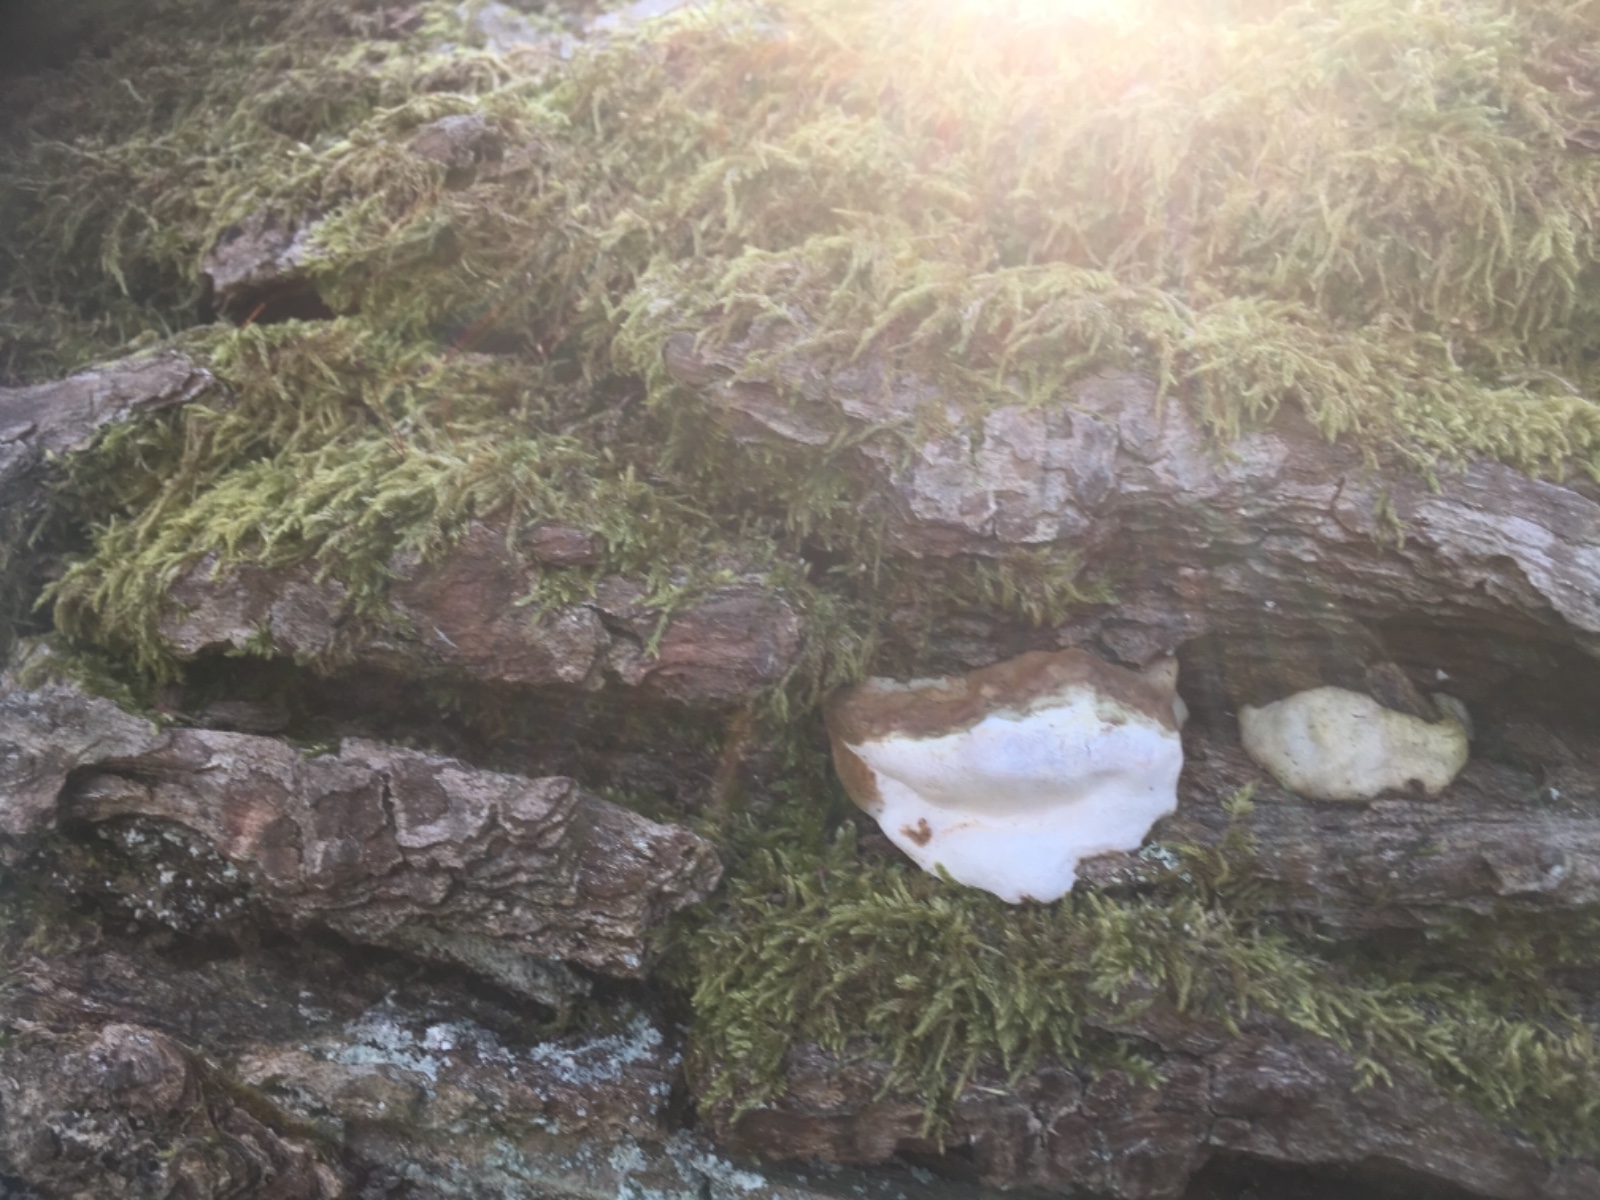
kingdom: Fungi
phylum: Basidiomycota
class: Agaricomycetes
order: Polyporales
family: Polyporaceae
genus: Ganoderma
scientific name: Ganoderma
